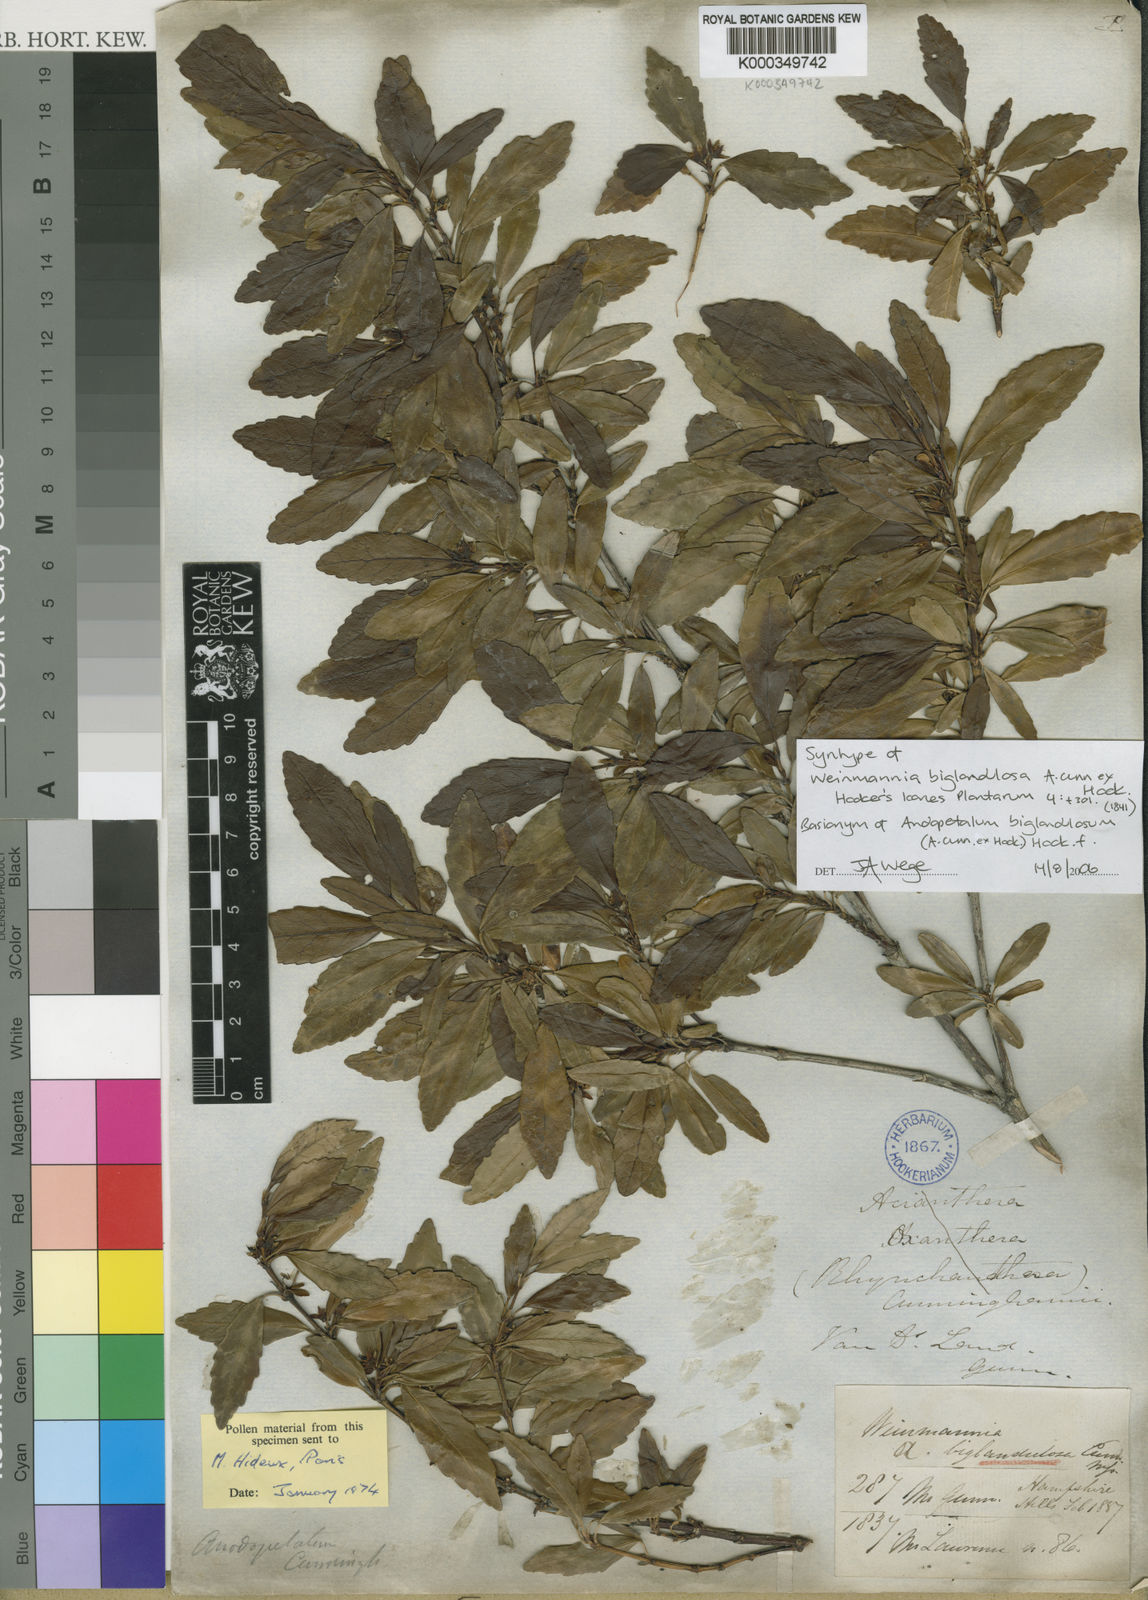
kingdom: Plantae
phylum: Tracheophyta
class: Magnoliopsida
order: Oxalidales
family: Cunoniaceae
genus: Anodopetalum
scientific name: Anodopetalum biglandulosum
